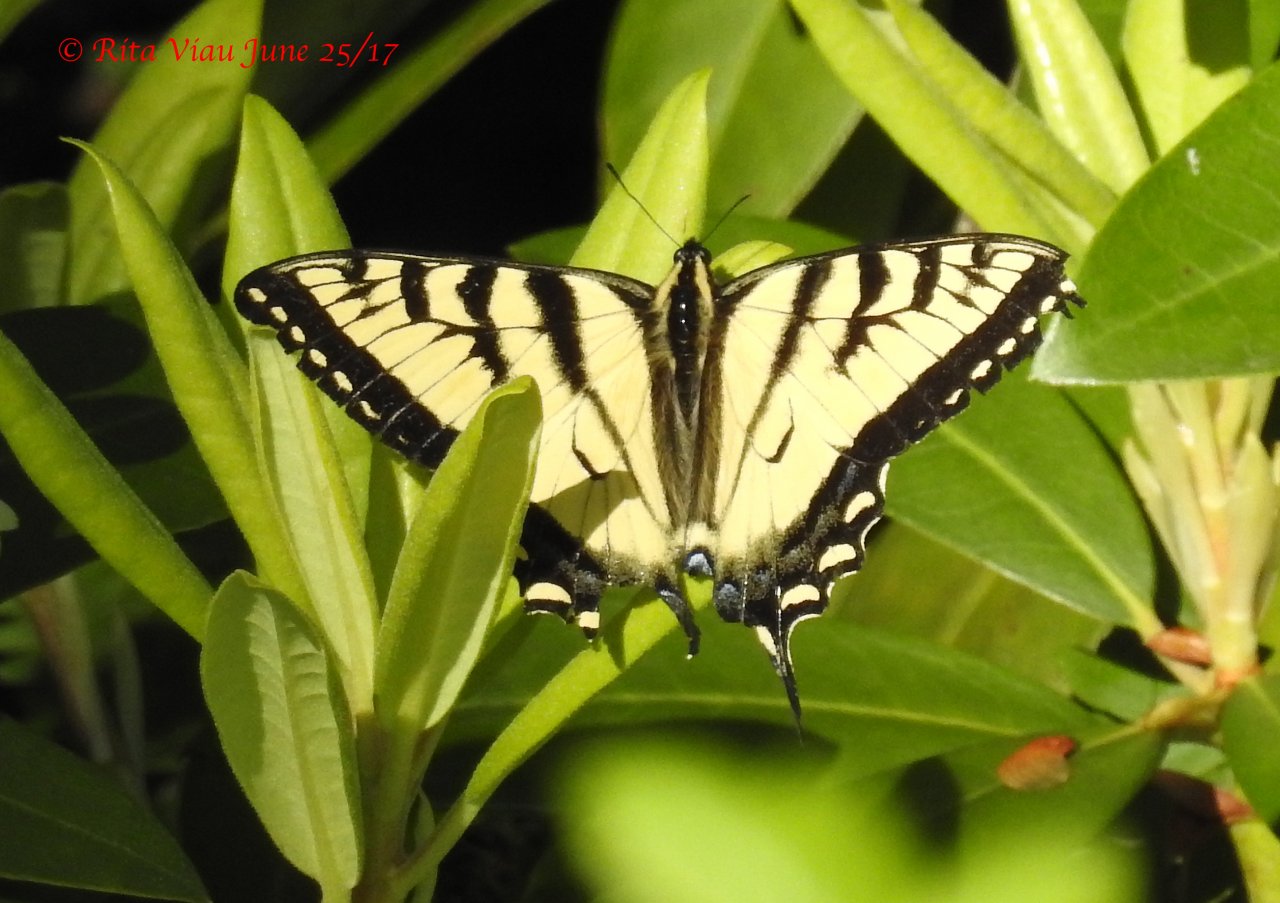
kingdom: Animalia
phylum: Arthropoda
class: Insecta
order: Lepidoptera
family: Papilionidae
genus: Pterourus
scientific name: Pterourus canadensis
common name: Canadian Tiger Swallowtail
